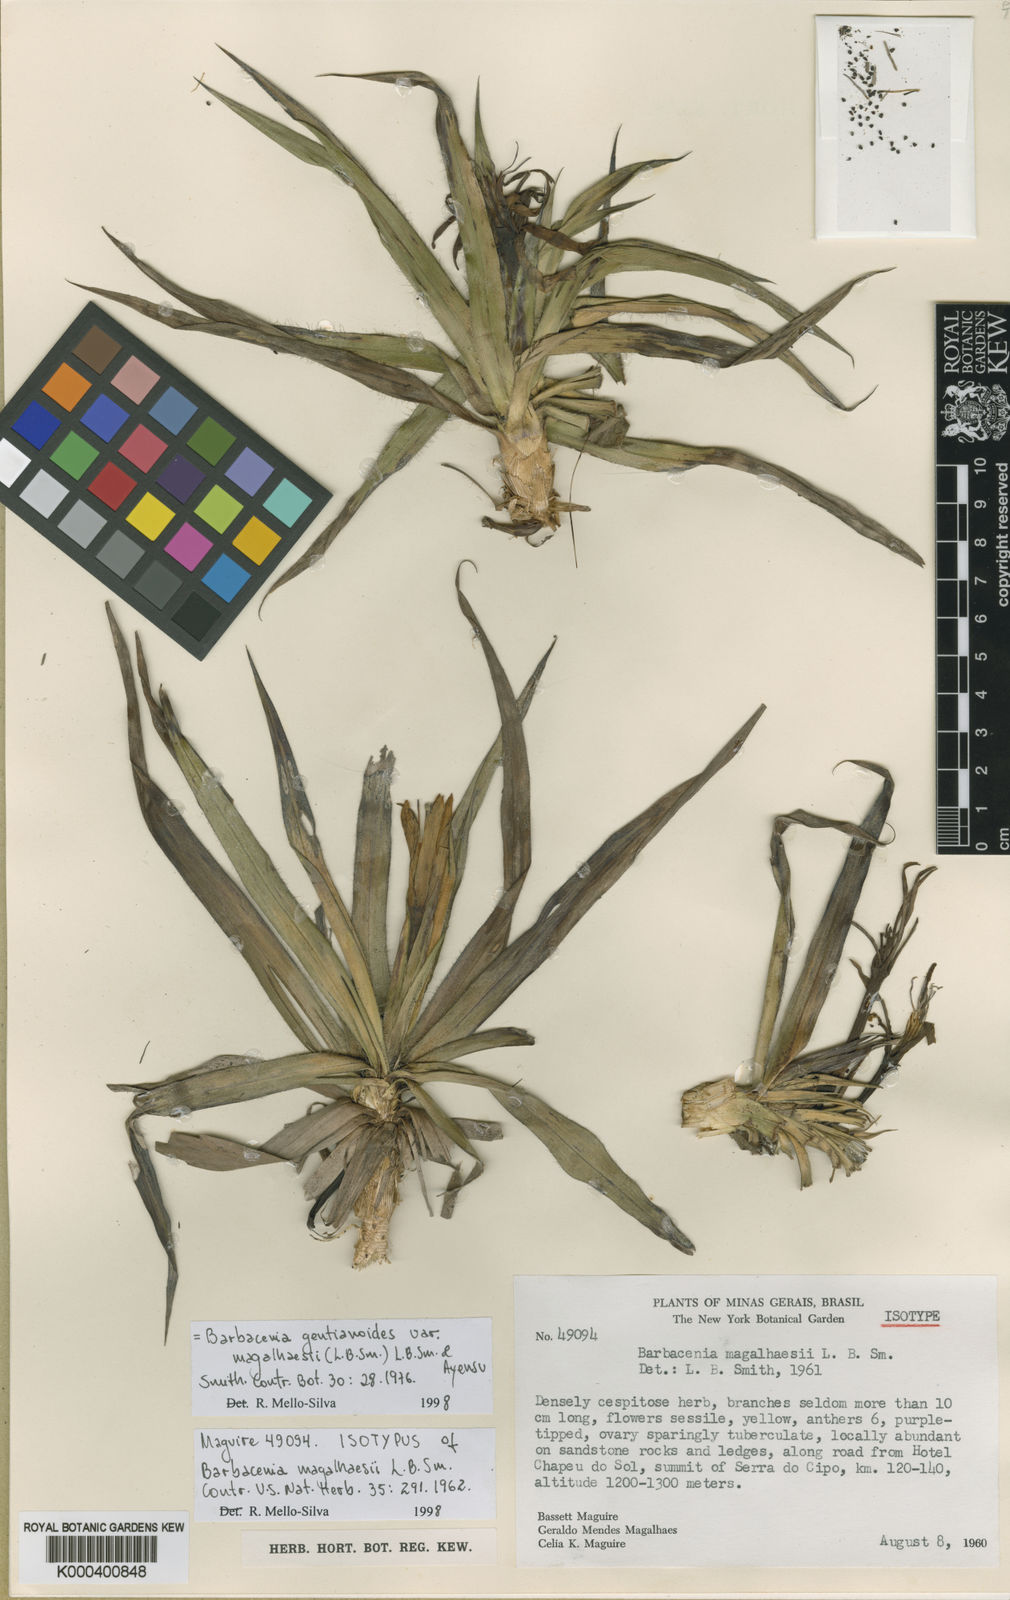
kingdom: Plantae
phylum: Tracheophyta
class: Liliopsida
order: Pandanales
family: Velloziaceae
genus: Barbacenia
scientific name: Barbacenia gentianoides
